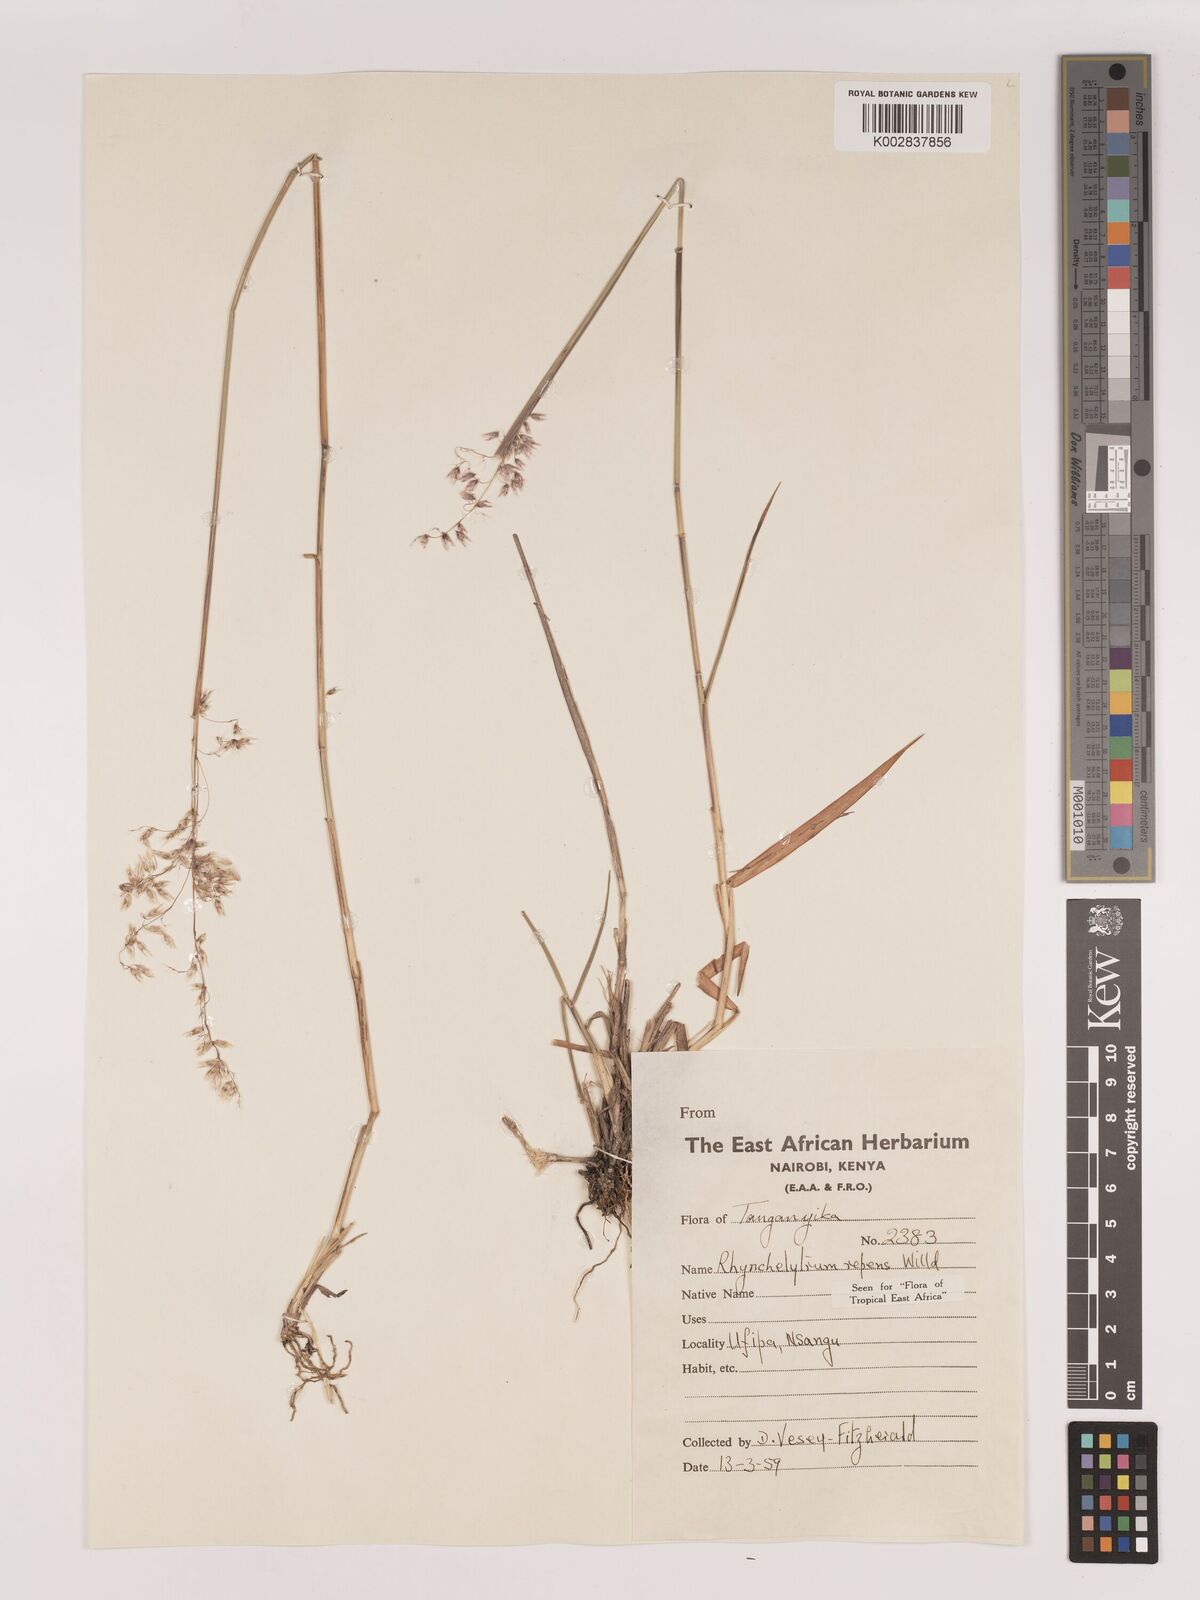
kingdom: Plantae
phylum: Tracheophyta
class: Liliopsida
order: Poales
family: Poaceae
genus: Melinis
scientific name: Melinis repens
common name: Rose natal grass
